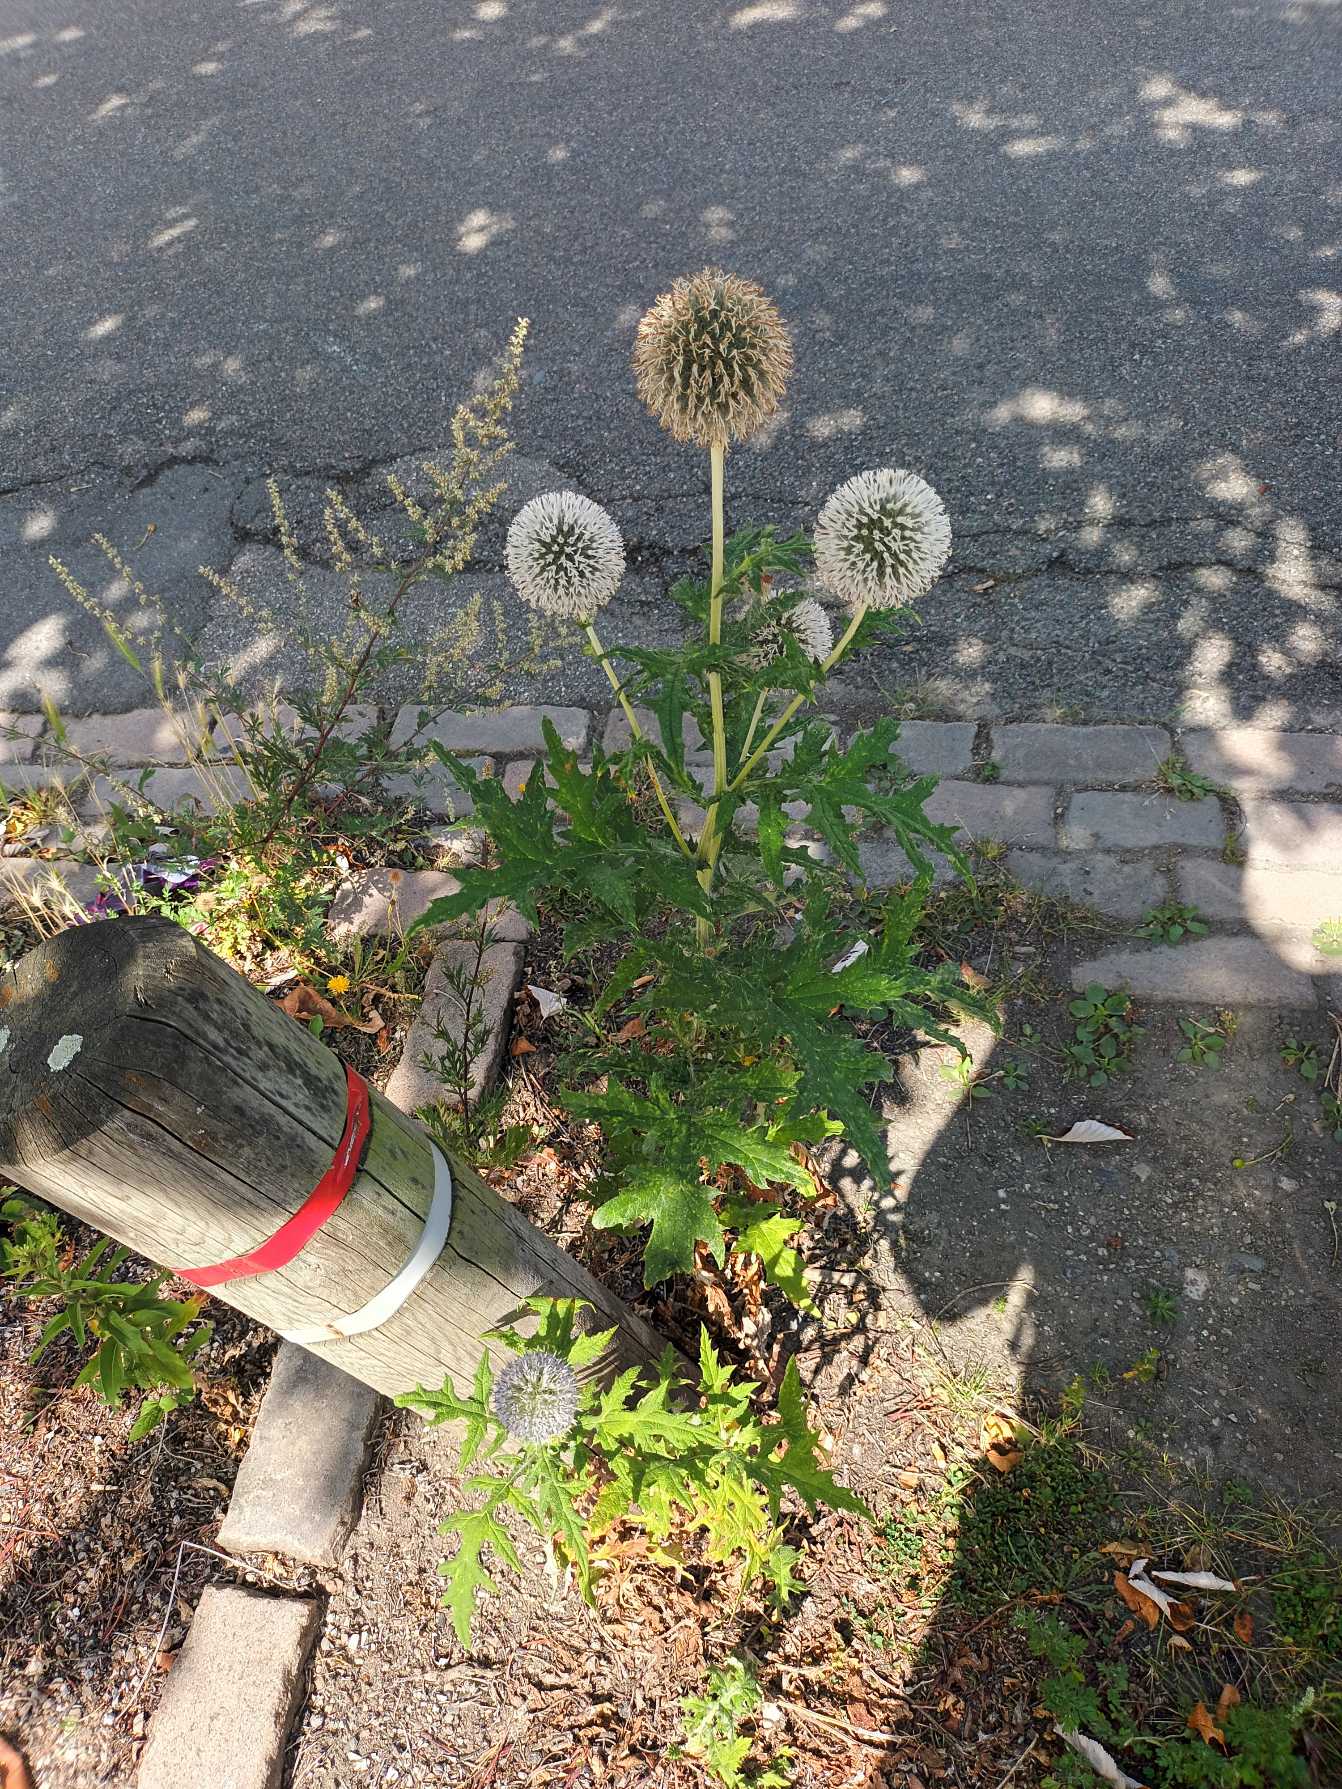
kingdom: Plantae
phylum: Tracheophyta
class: Magnoliopsida
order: Asterales
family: Asteraceae
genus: Echinops
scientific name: Echinops exaltatus
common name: Høj tidselkugle
